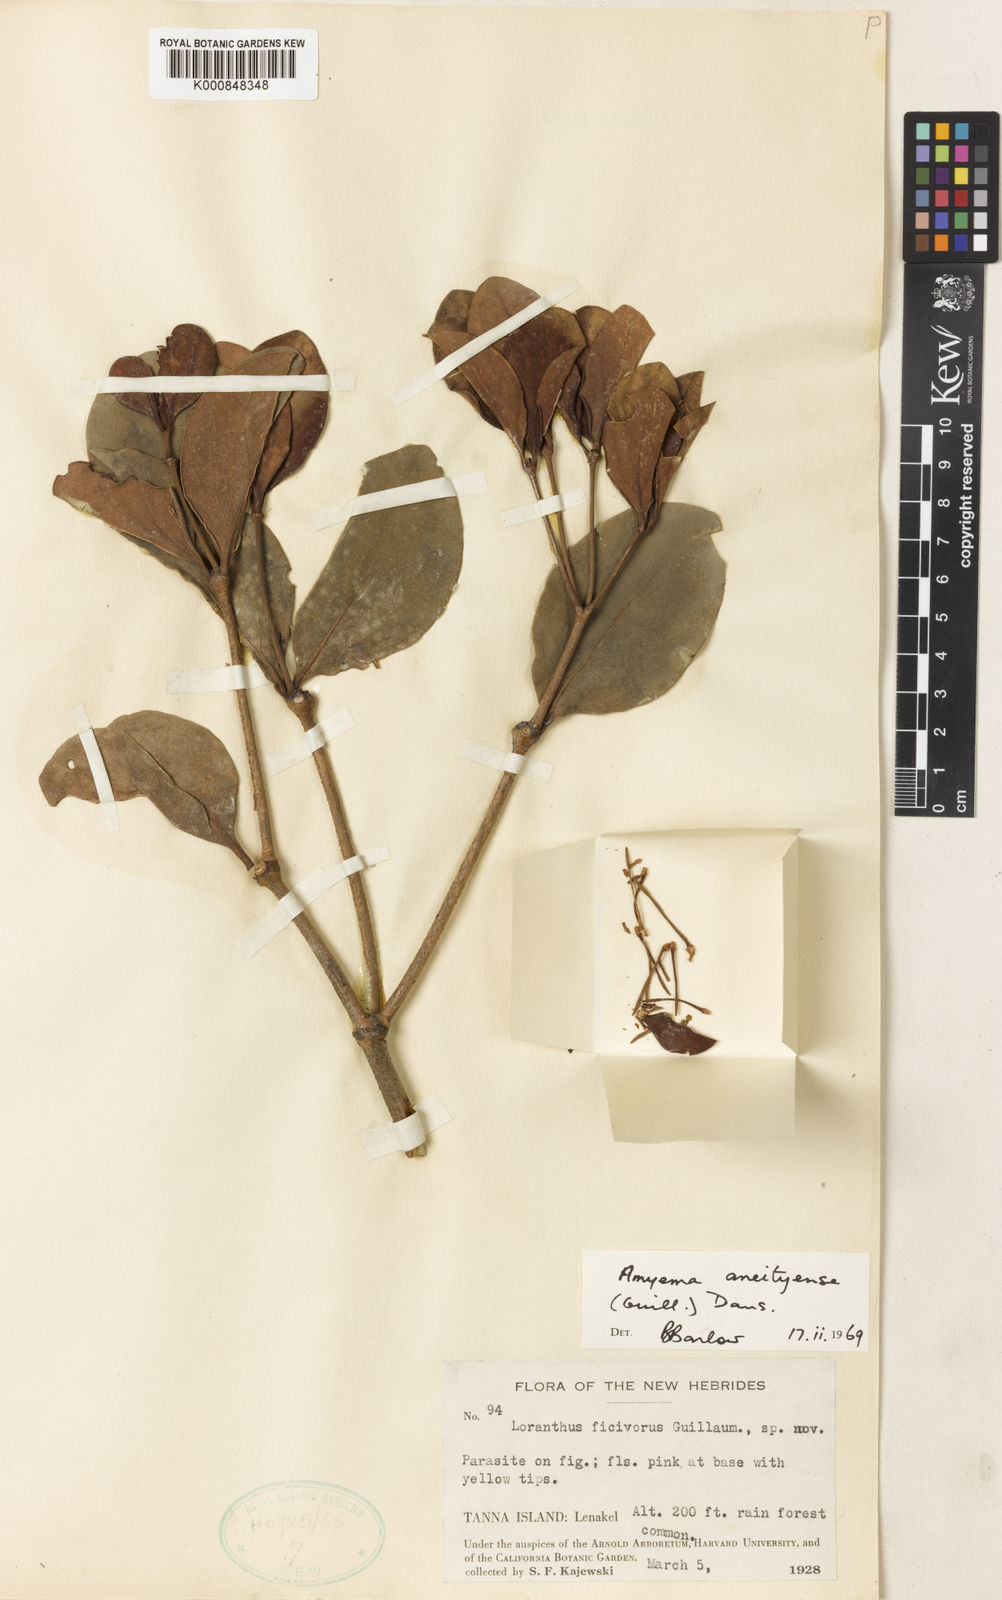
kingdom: Plantae
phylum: Tracheophyta
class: Magnoliopsida
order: Santalales
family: Loranthaceae
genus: Amyema
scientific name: Amyema artensis
